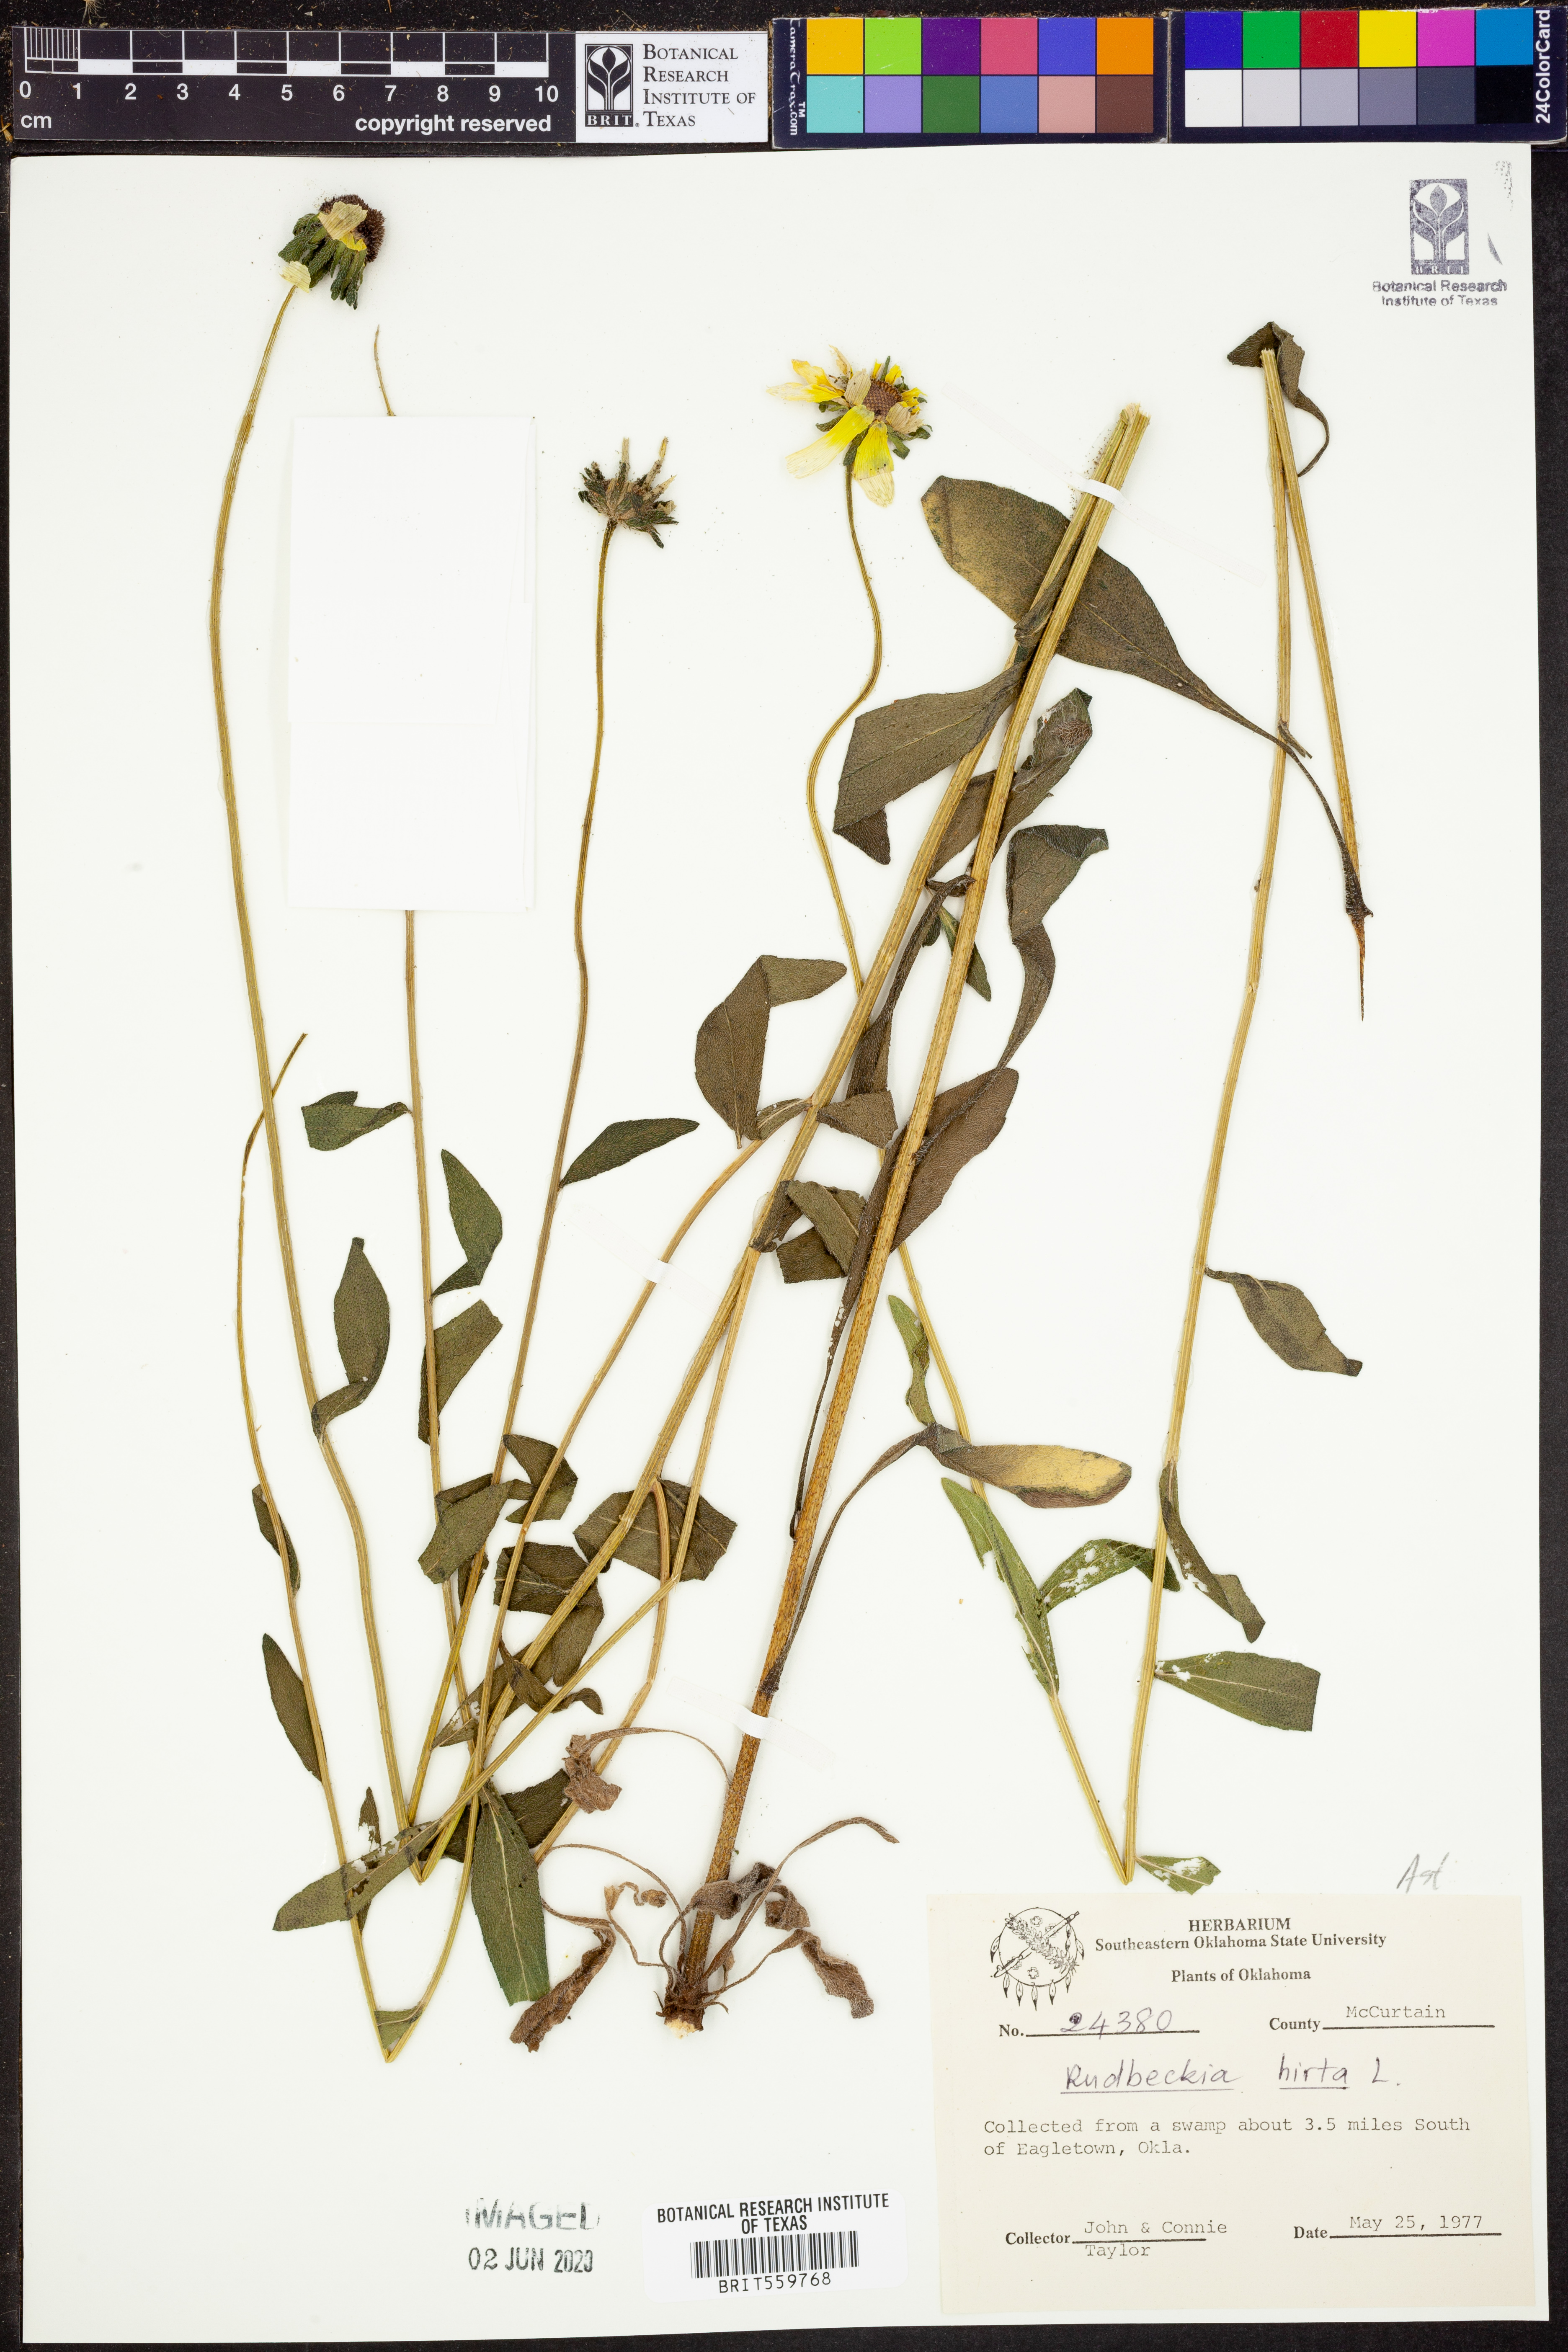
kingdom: Plantae
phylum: Tracheophyta
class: Magnoliopsida
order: Asterales
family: Asteraceae
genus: Rudbeckia
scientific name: Rudbeckia hirta
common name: Black-eyed-susan
